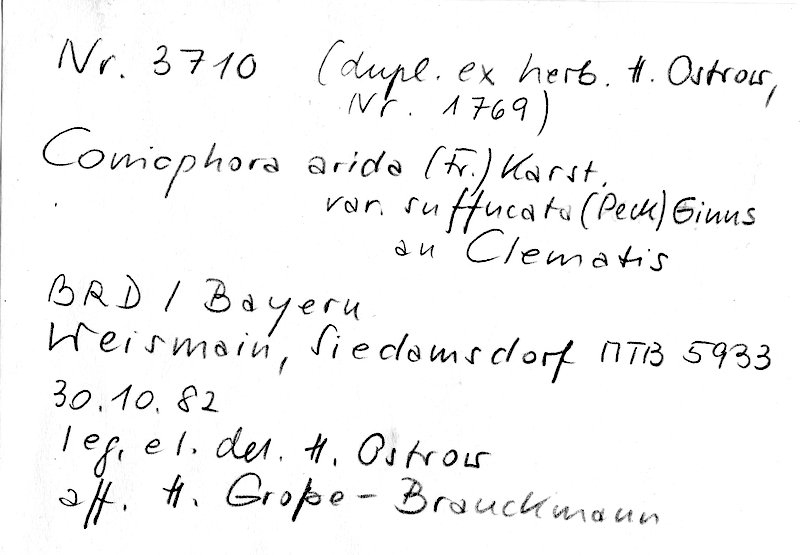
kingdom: Fungi
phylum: Basidiomycota
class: Agaricomycetes
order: Boletales
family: Coniophoraceae
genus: Coniophora
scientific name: Coniophora arida
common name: Dry duster
